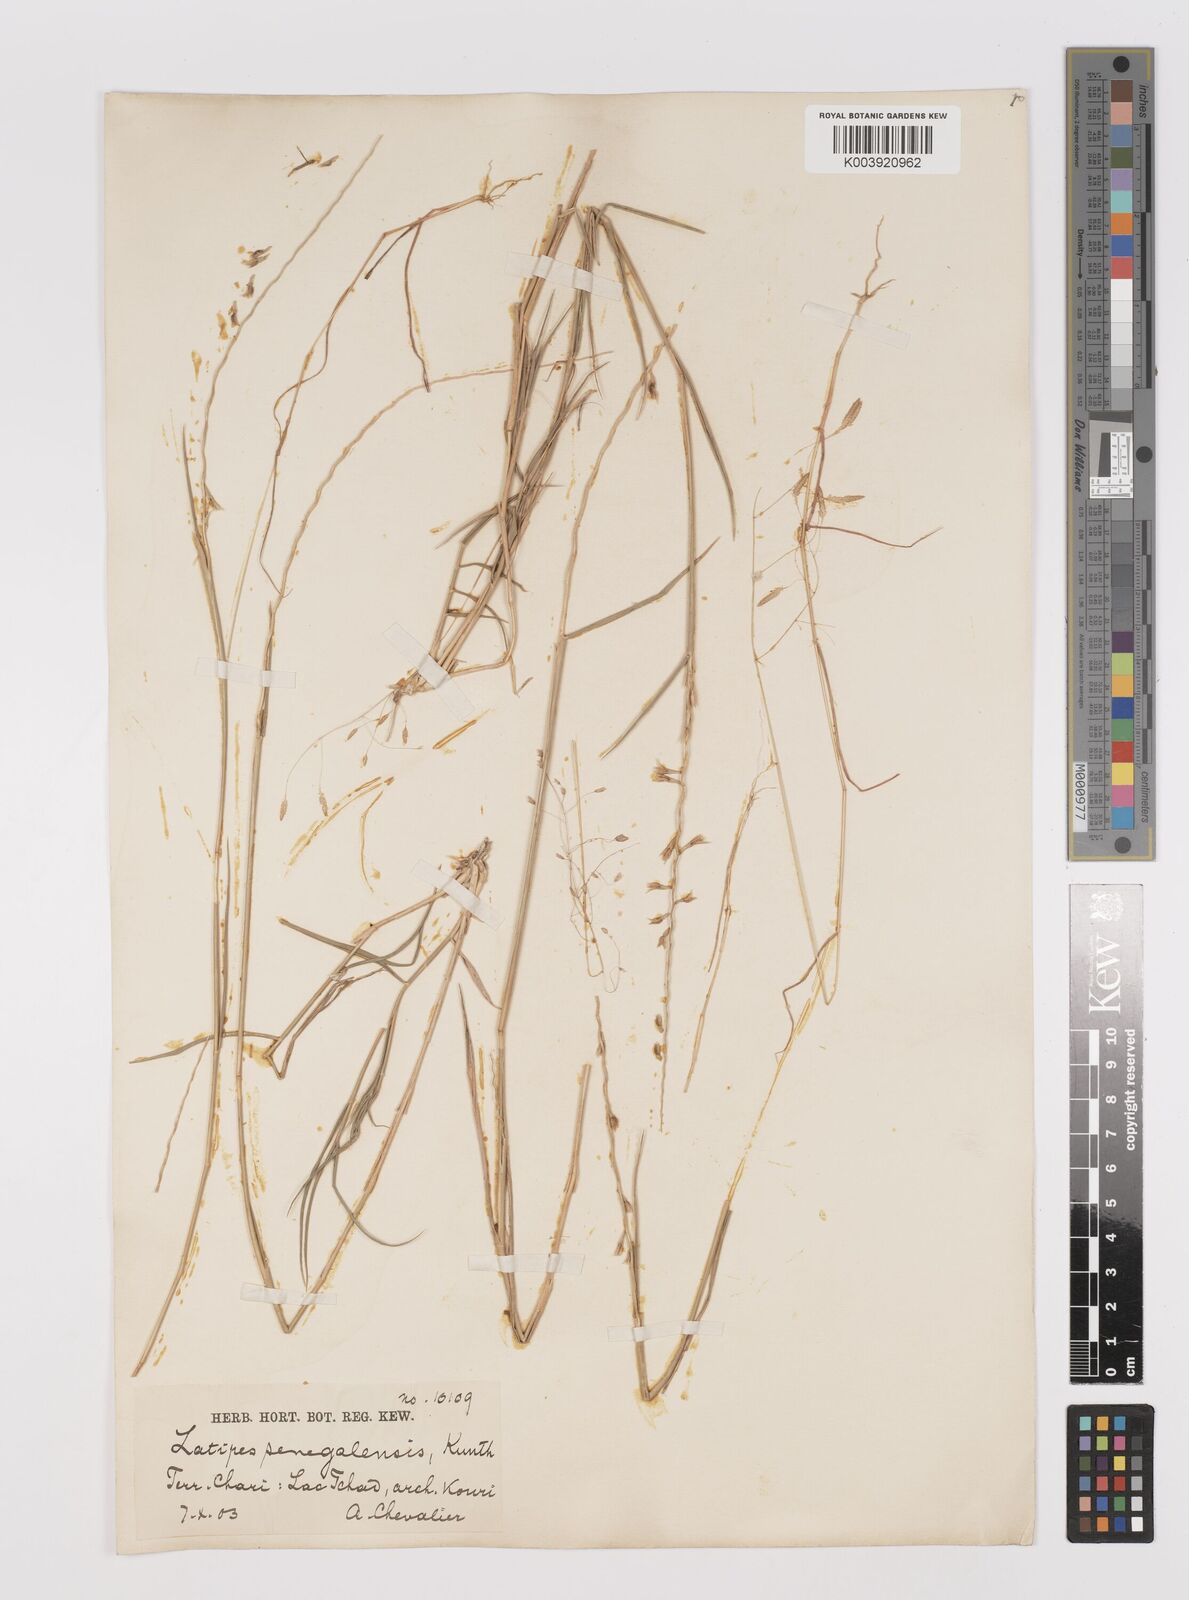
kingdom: Plantae
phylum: Tracheophyta
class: Liliopsida
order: Poales
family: Poaceae
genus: Leptothrium
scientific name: Leptothrium senegalense
